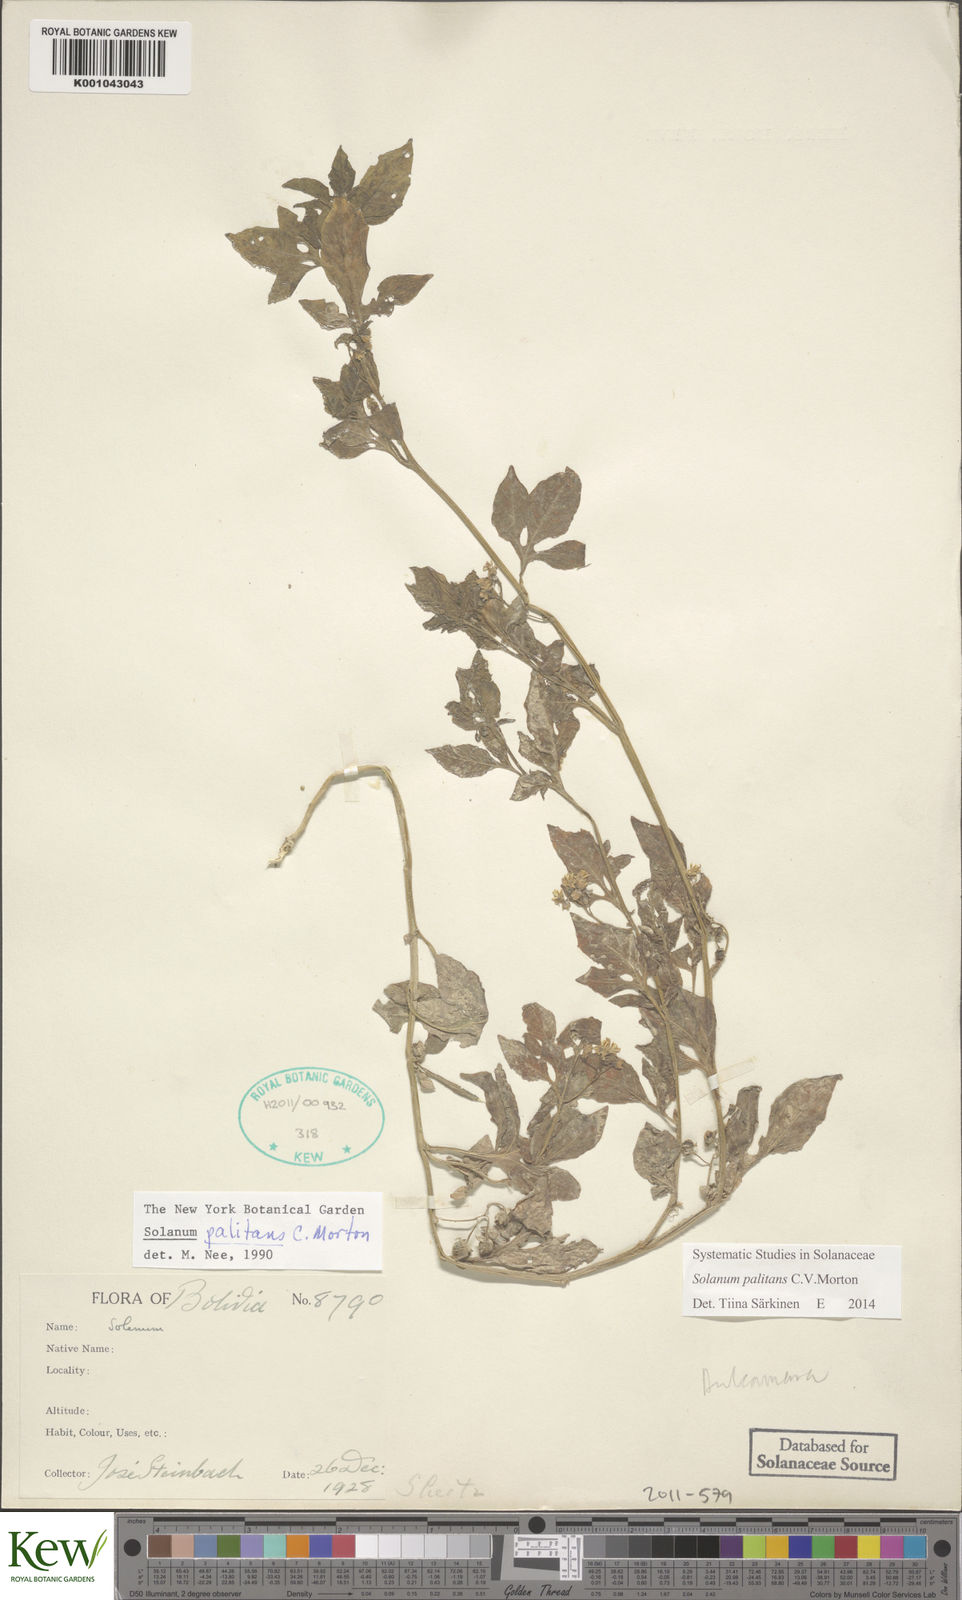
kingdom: Plantae
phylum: Tracheophyta
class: Magnoliopsida
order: Solanales
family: Solanaceae
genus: Solanum
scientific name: Solanum palitans
